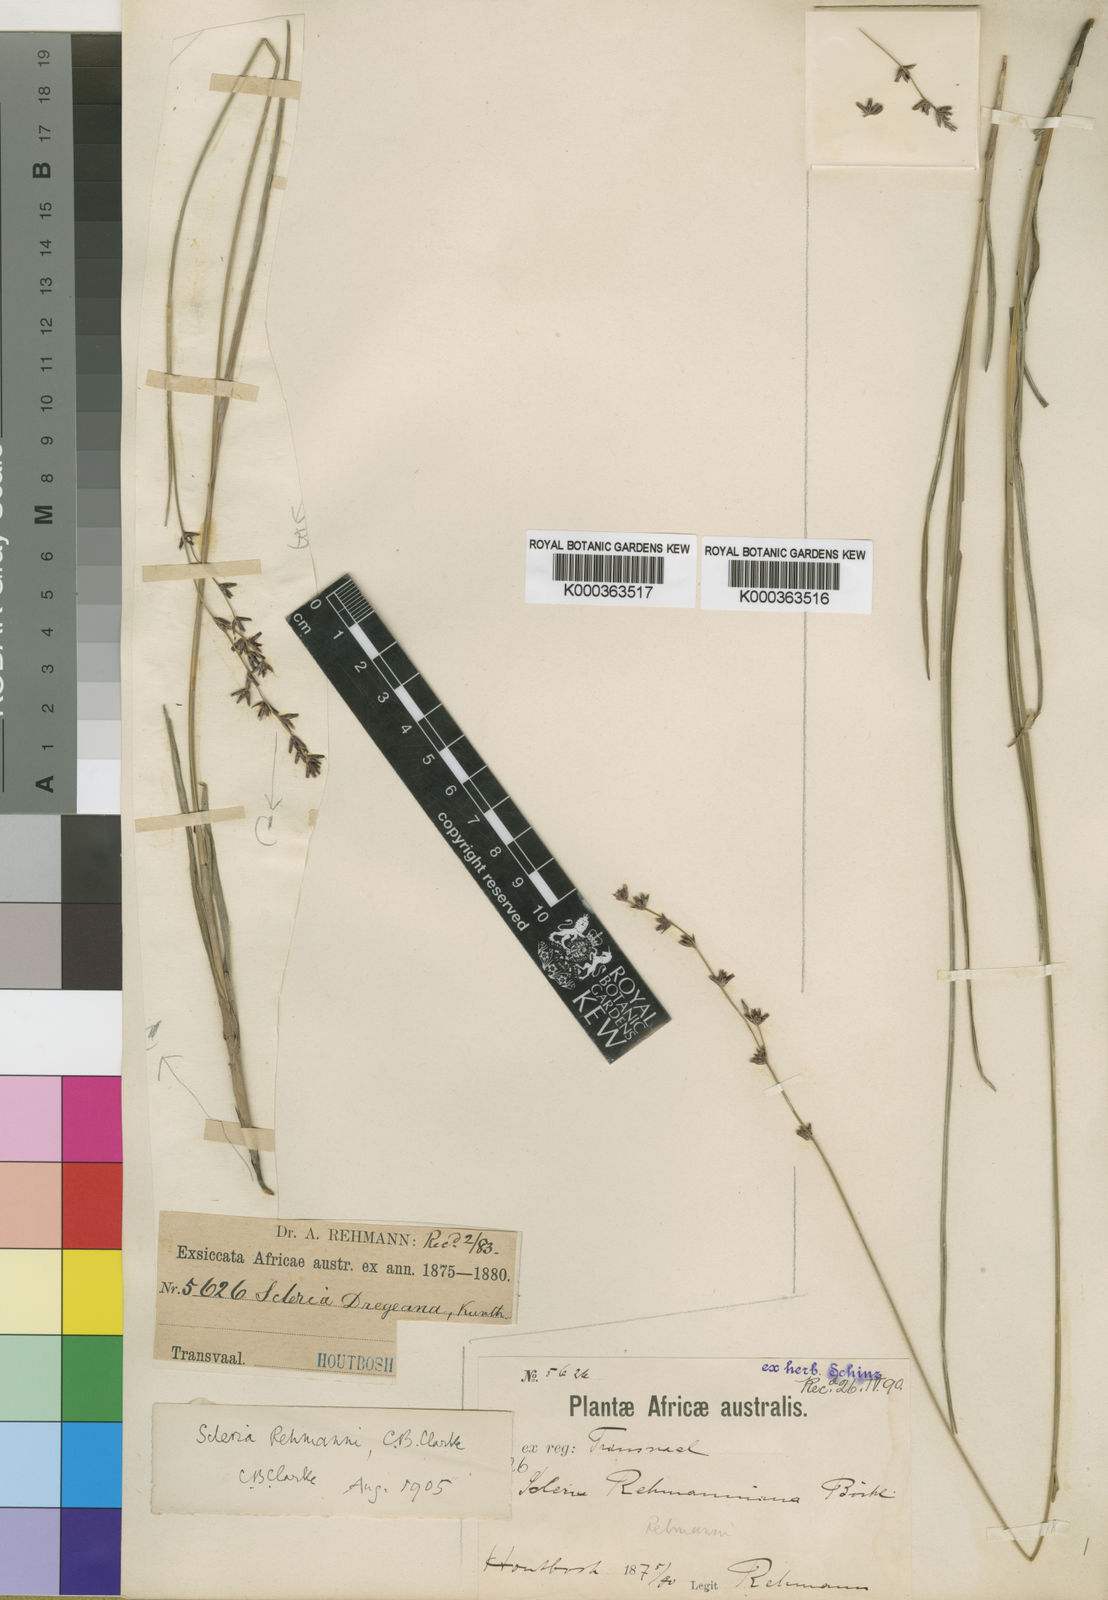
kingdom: Plantae
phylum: Tracheophyta
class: Liliopsida
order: Poales
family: Cyperaceae
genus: Scleria
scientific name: Scleria rehmannii
